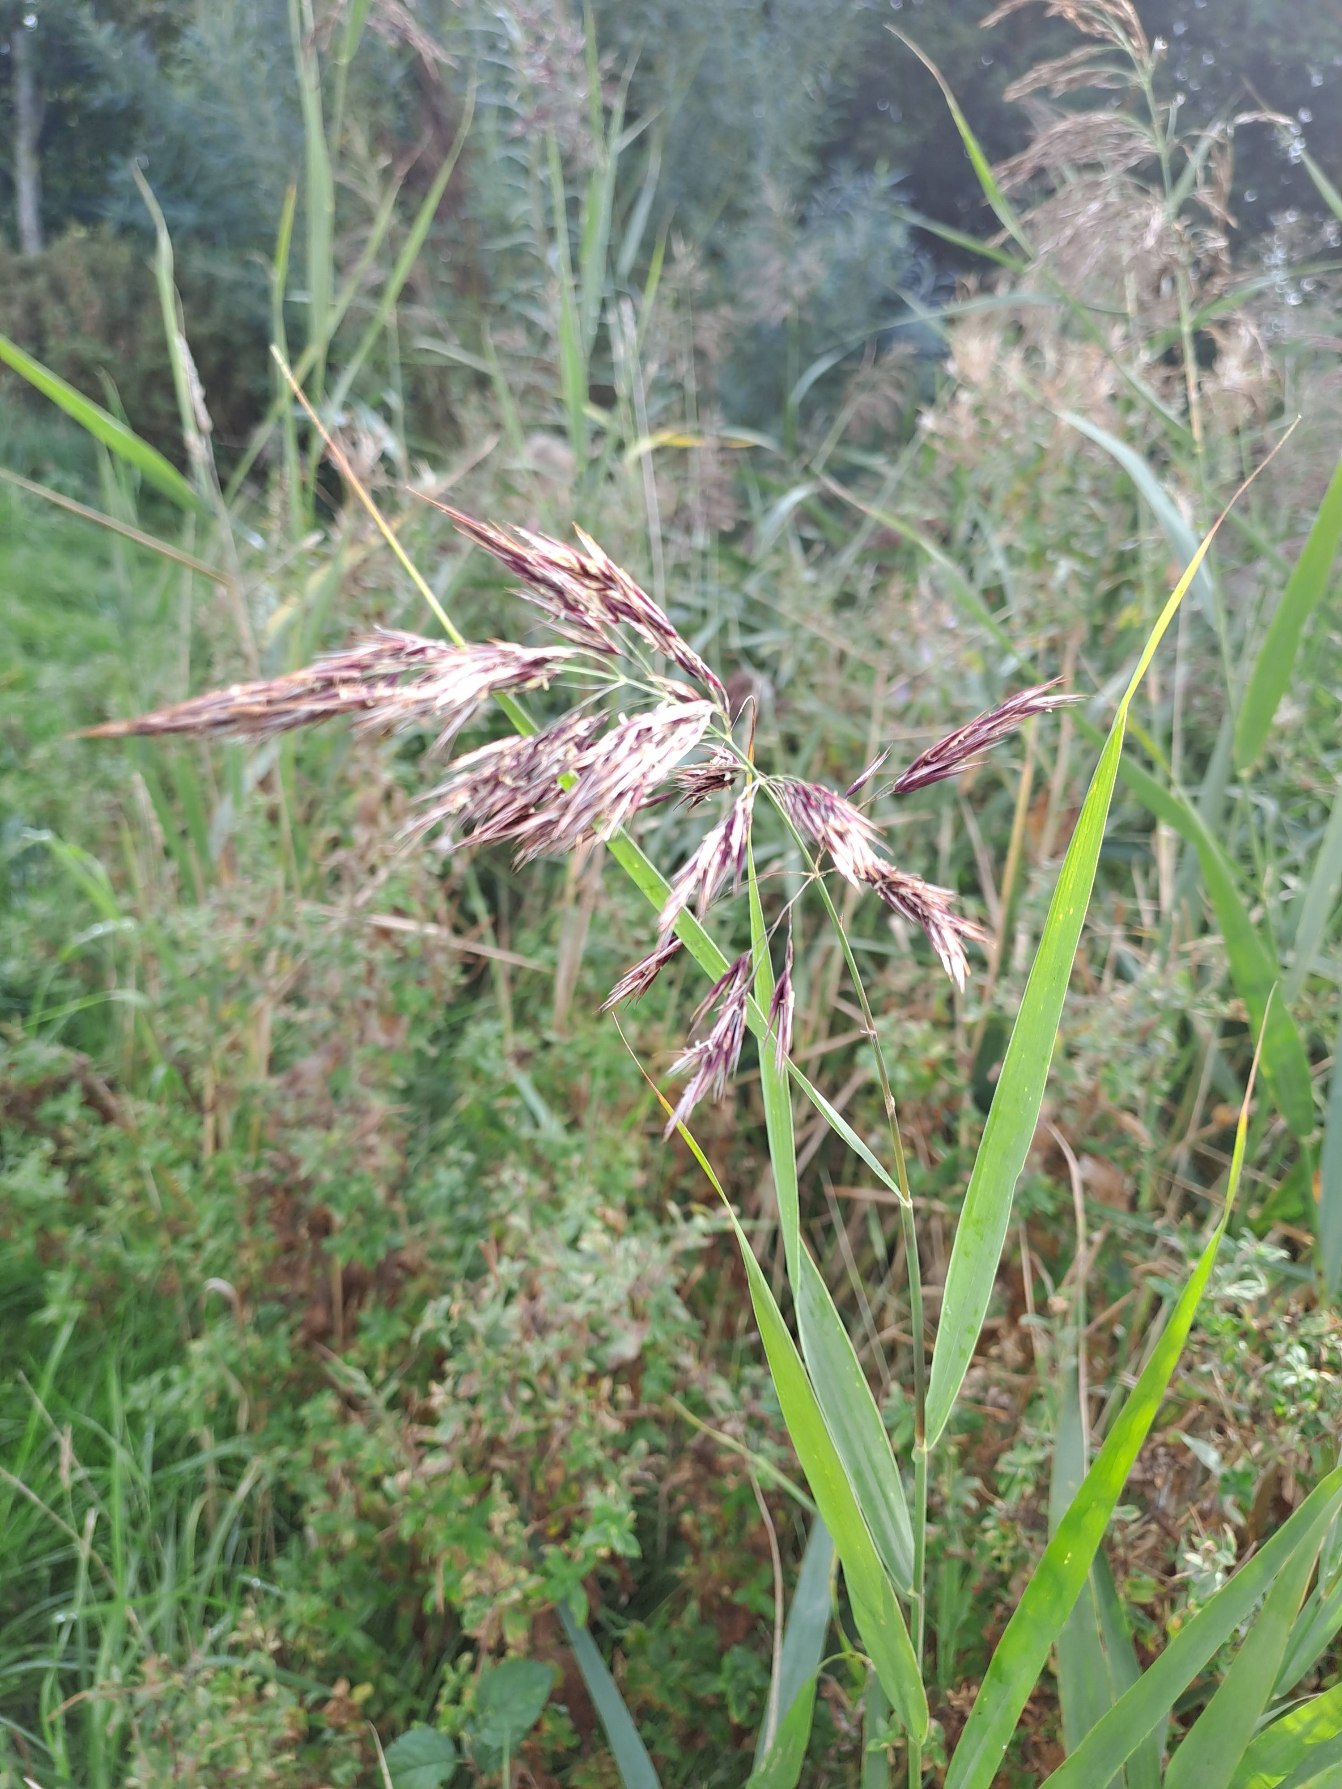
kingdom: Plantae
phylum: Tracheophyta
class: Liliopsida
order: Poales
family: Poaceae
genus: Phragmites
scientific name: Phragmites australis
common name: Tagrør
